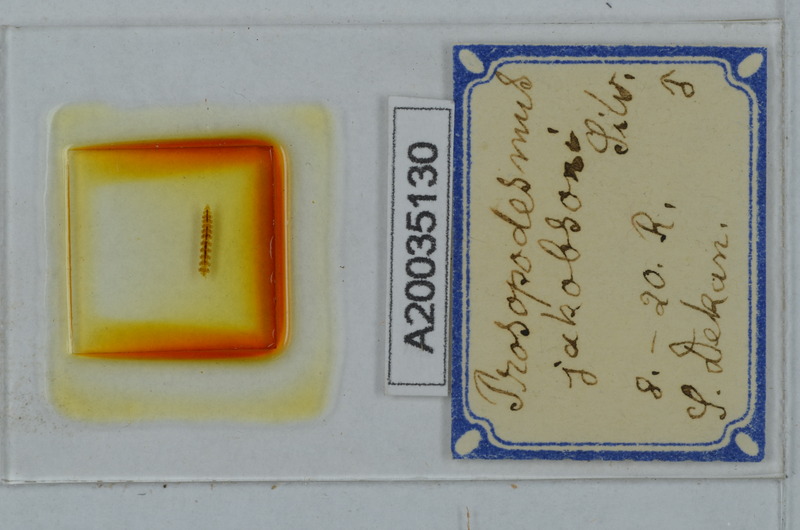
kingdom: Animalia
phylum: Arthropoda
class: Diplopoda
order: Polydesmida
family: Haplodesmidae
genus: Prosopodesmus
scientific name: Prosopodesmus jacobsoni
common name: Millipede
